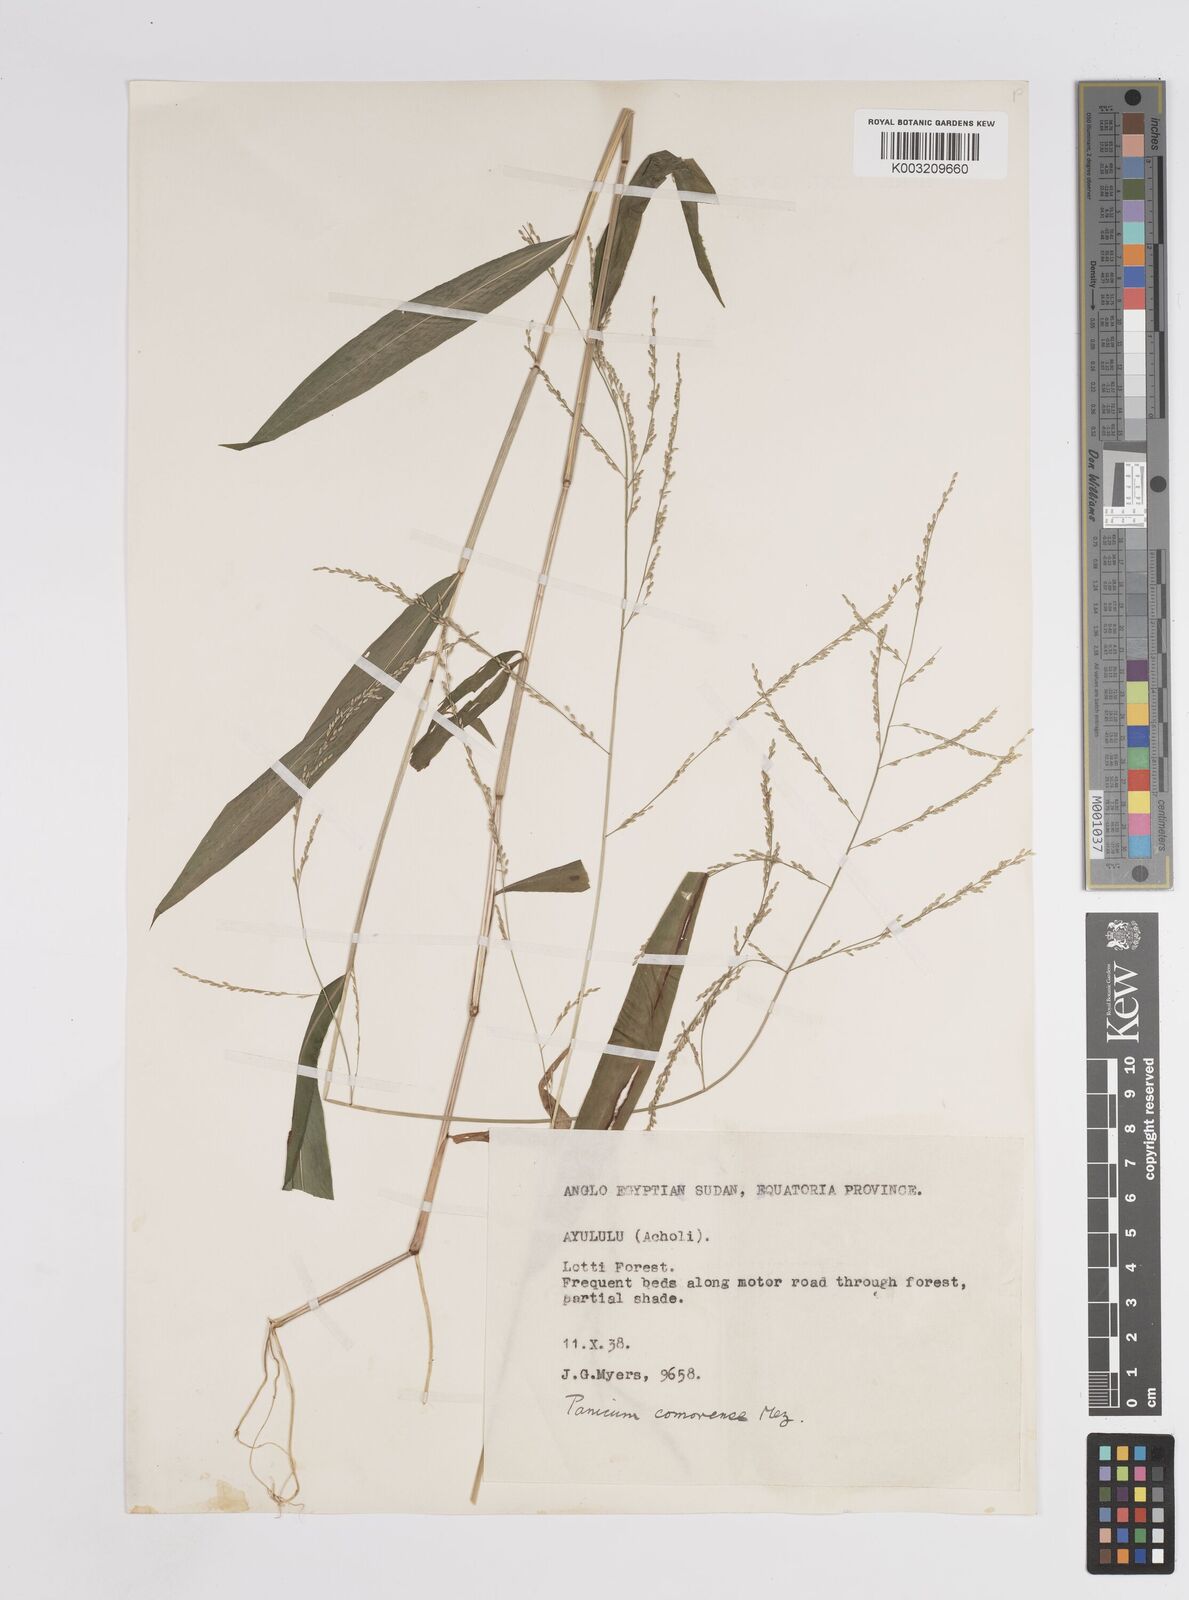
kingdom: Plantae
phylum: Tracheophyta
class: Liliopsida
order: Poales
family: Poaceae
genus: Panicum
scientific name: Panicum comorense
